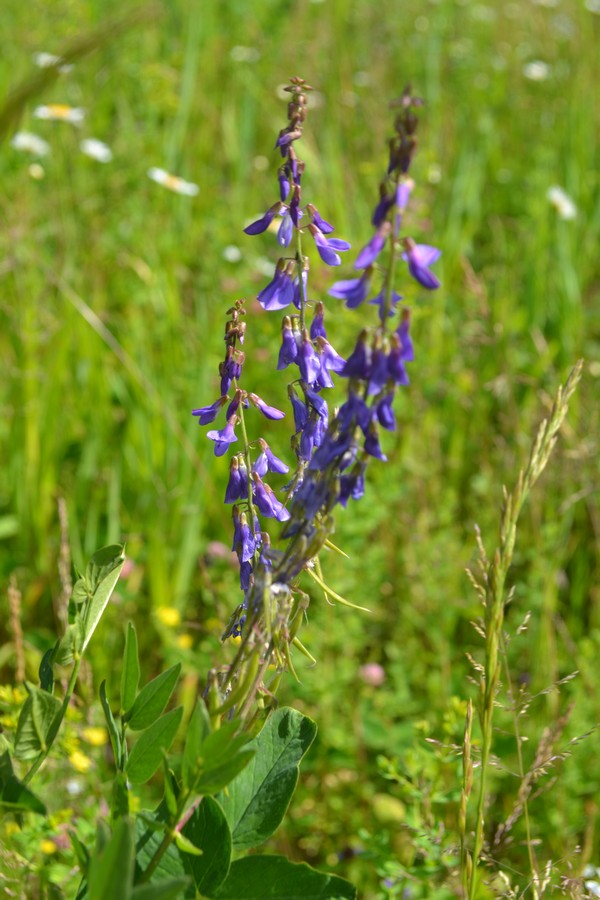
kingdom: Plantae
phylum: Tracheophyta
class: Magnoliopsida
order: Fabales
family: Fabaceae
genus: Galega
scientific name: Galega orientalis
